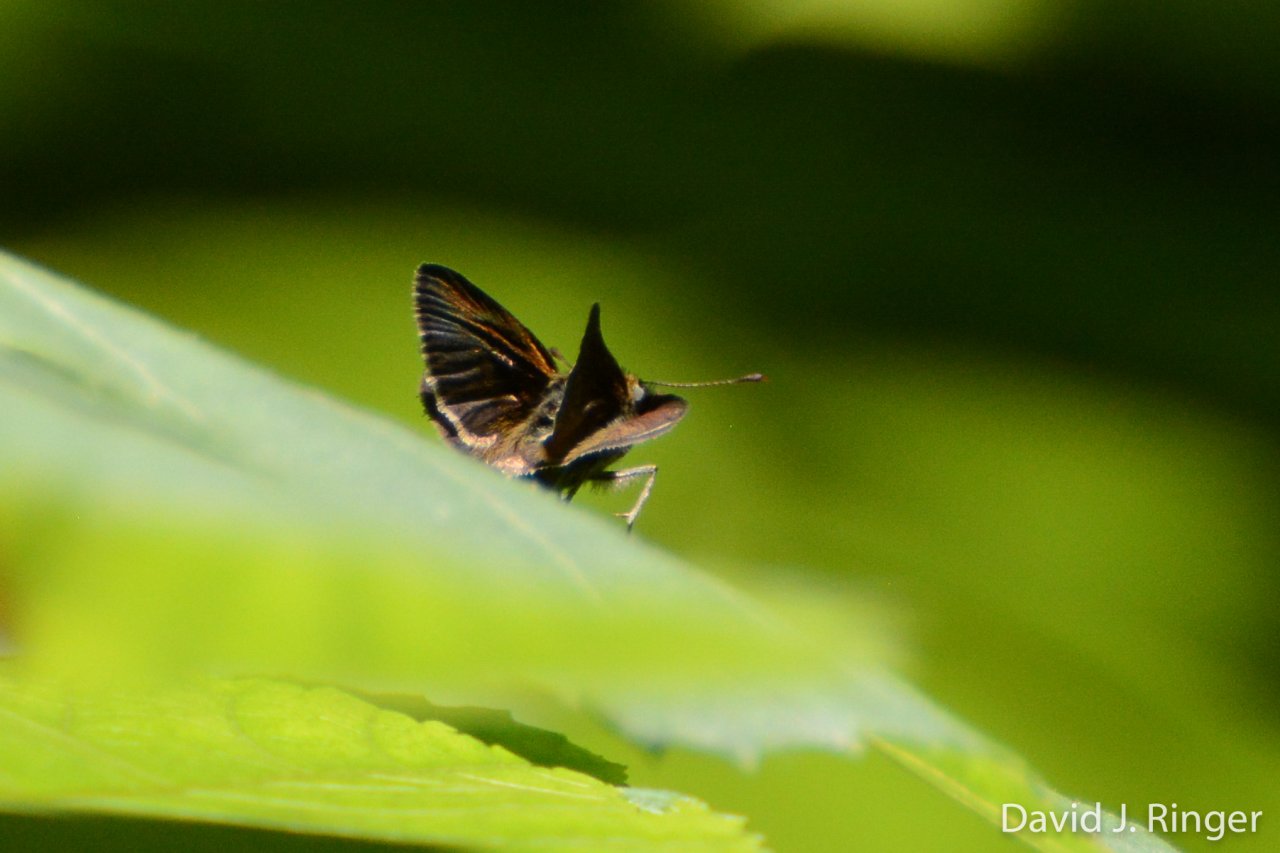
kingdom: Animalia
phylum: Arthropoda
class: Insecta
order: Lepidoptera
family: Hesperiidae
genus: Euphyes
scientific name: Euphyes vestris
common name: Dun Skipper
